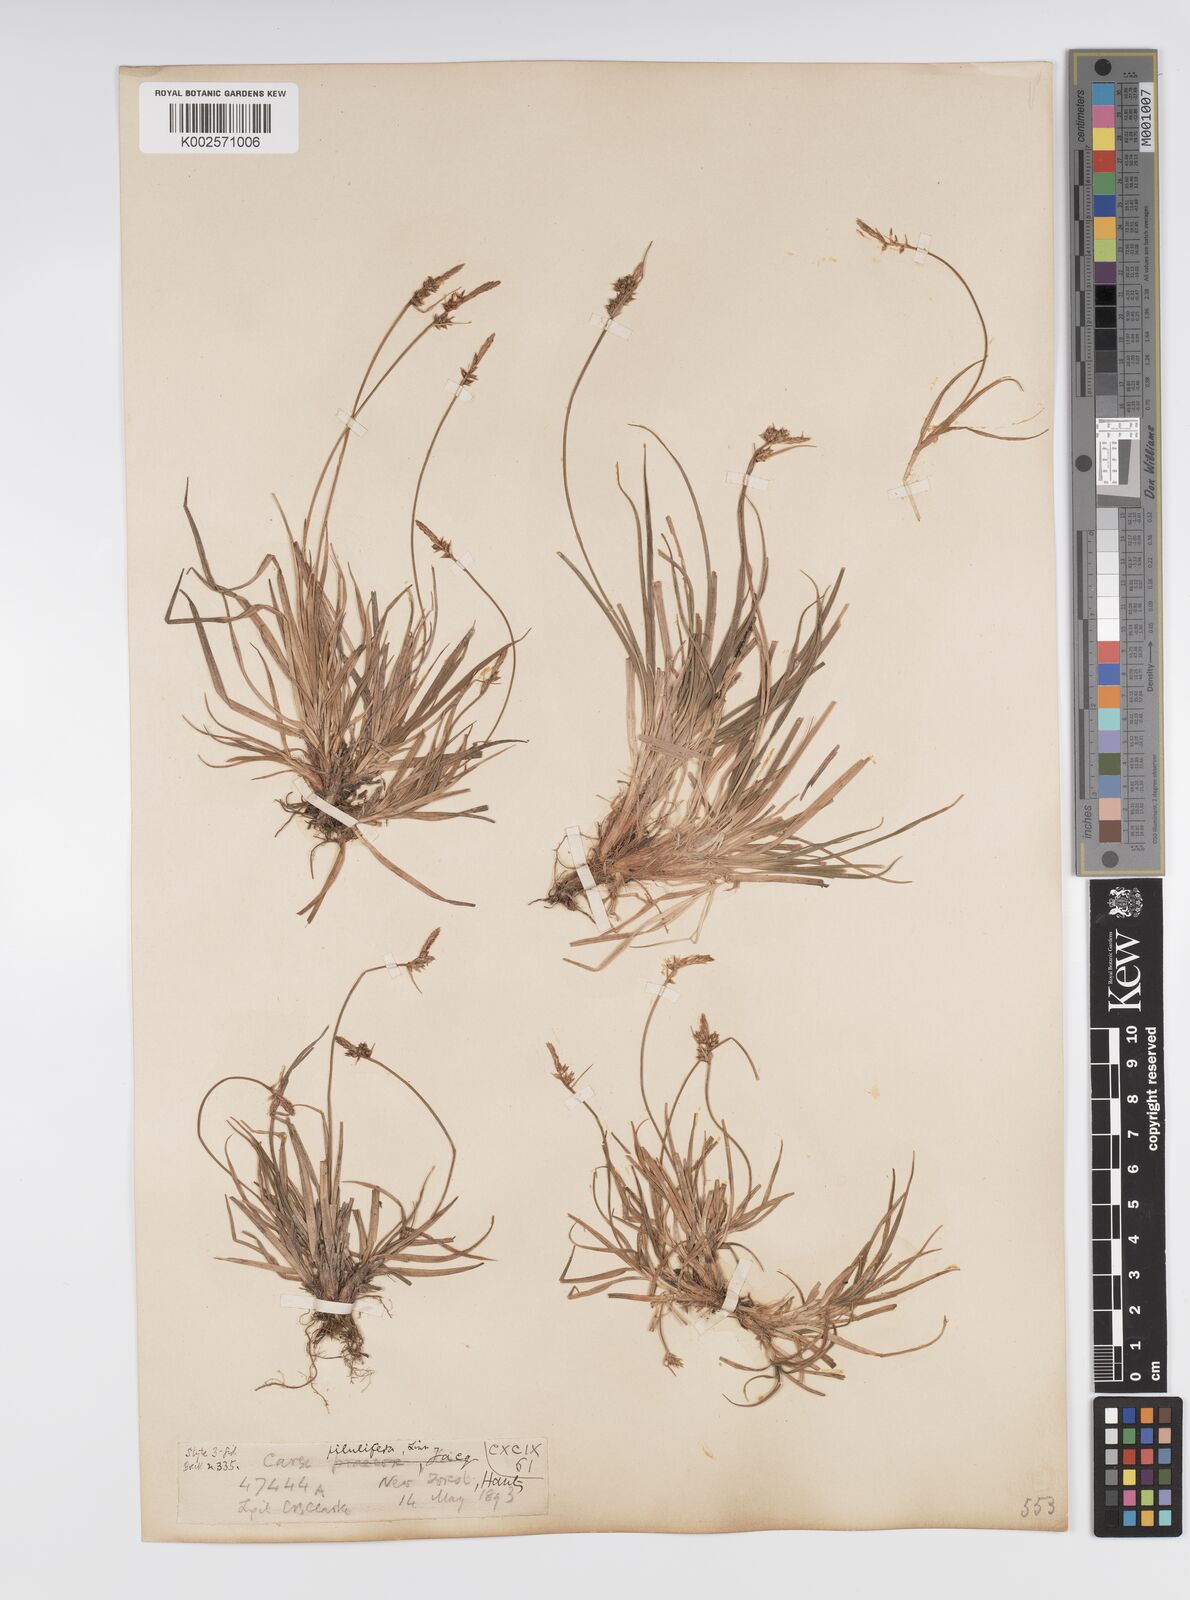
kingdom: Plantae
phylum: Tracheophyta
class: Liliopsida
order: Poales
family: Cyperaceae
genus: Carex
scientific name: Carex praecox
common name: Early sedge
